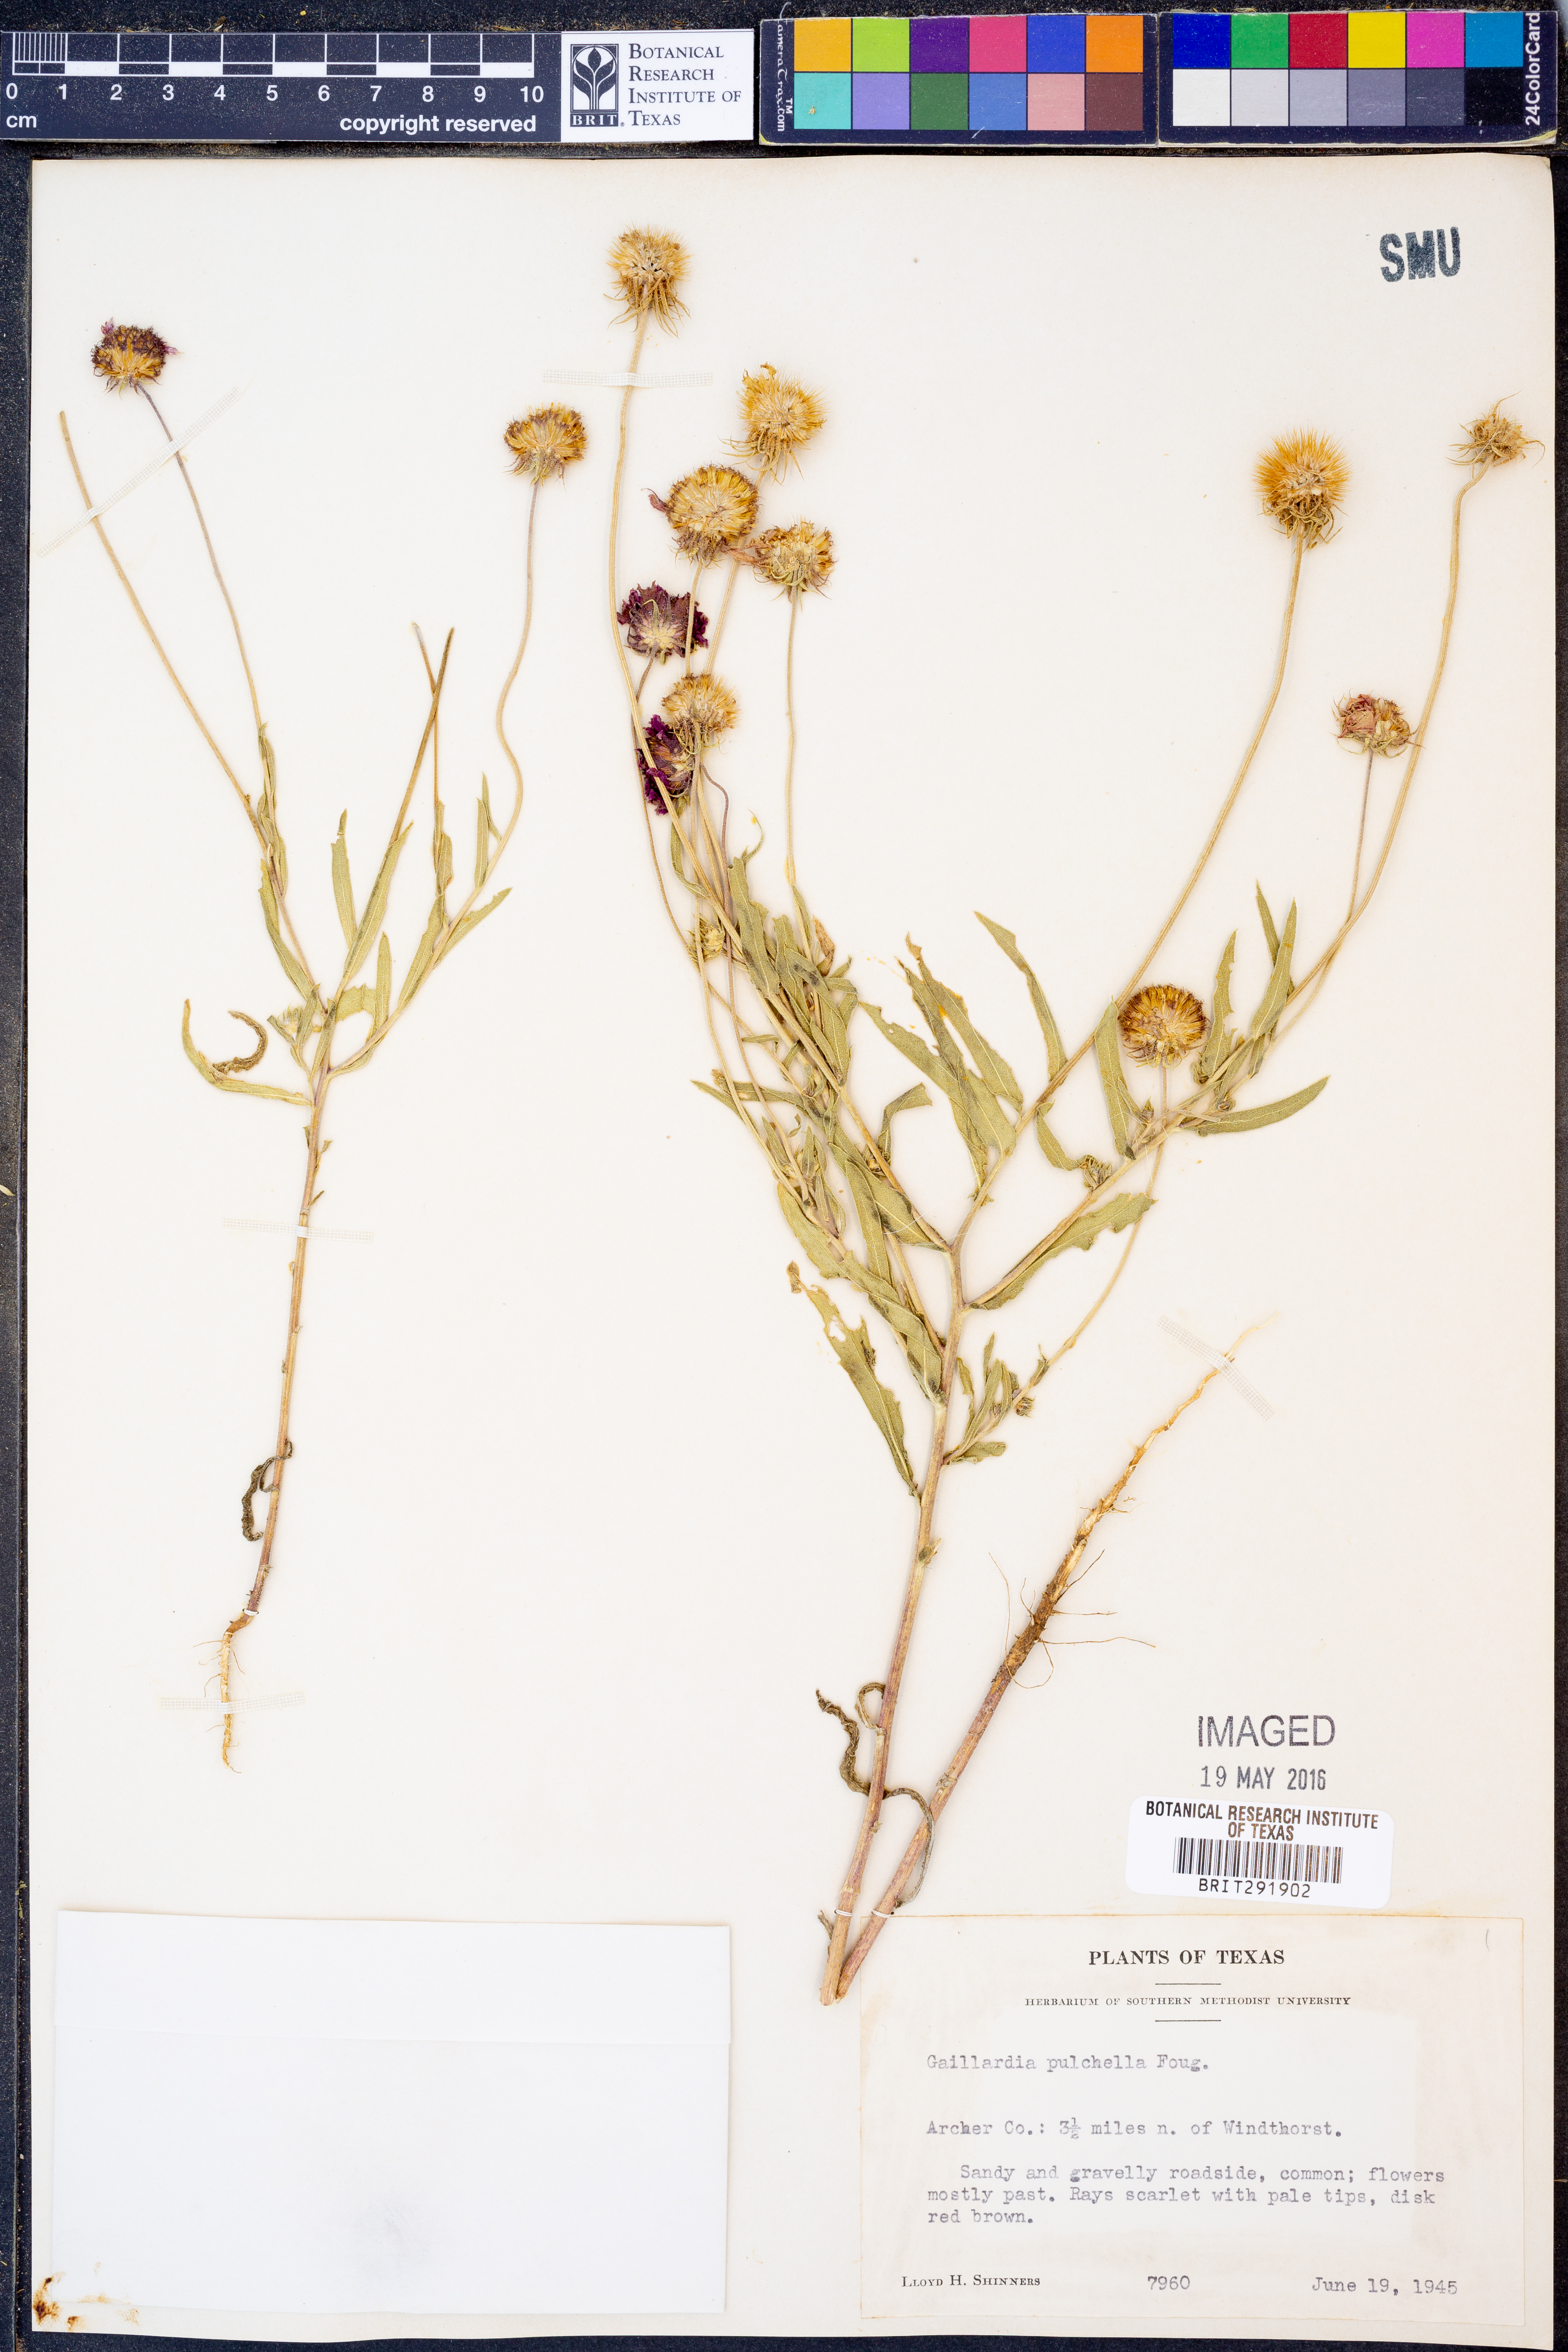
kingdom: Plantae
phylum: Tracheophyta
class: Magnoliopsida
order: Asterales
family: Asteraceae
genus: Gaillardia
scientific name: Gaillardia pulchella
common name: Firewheel
